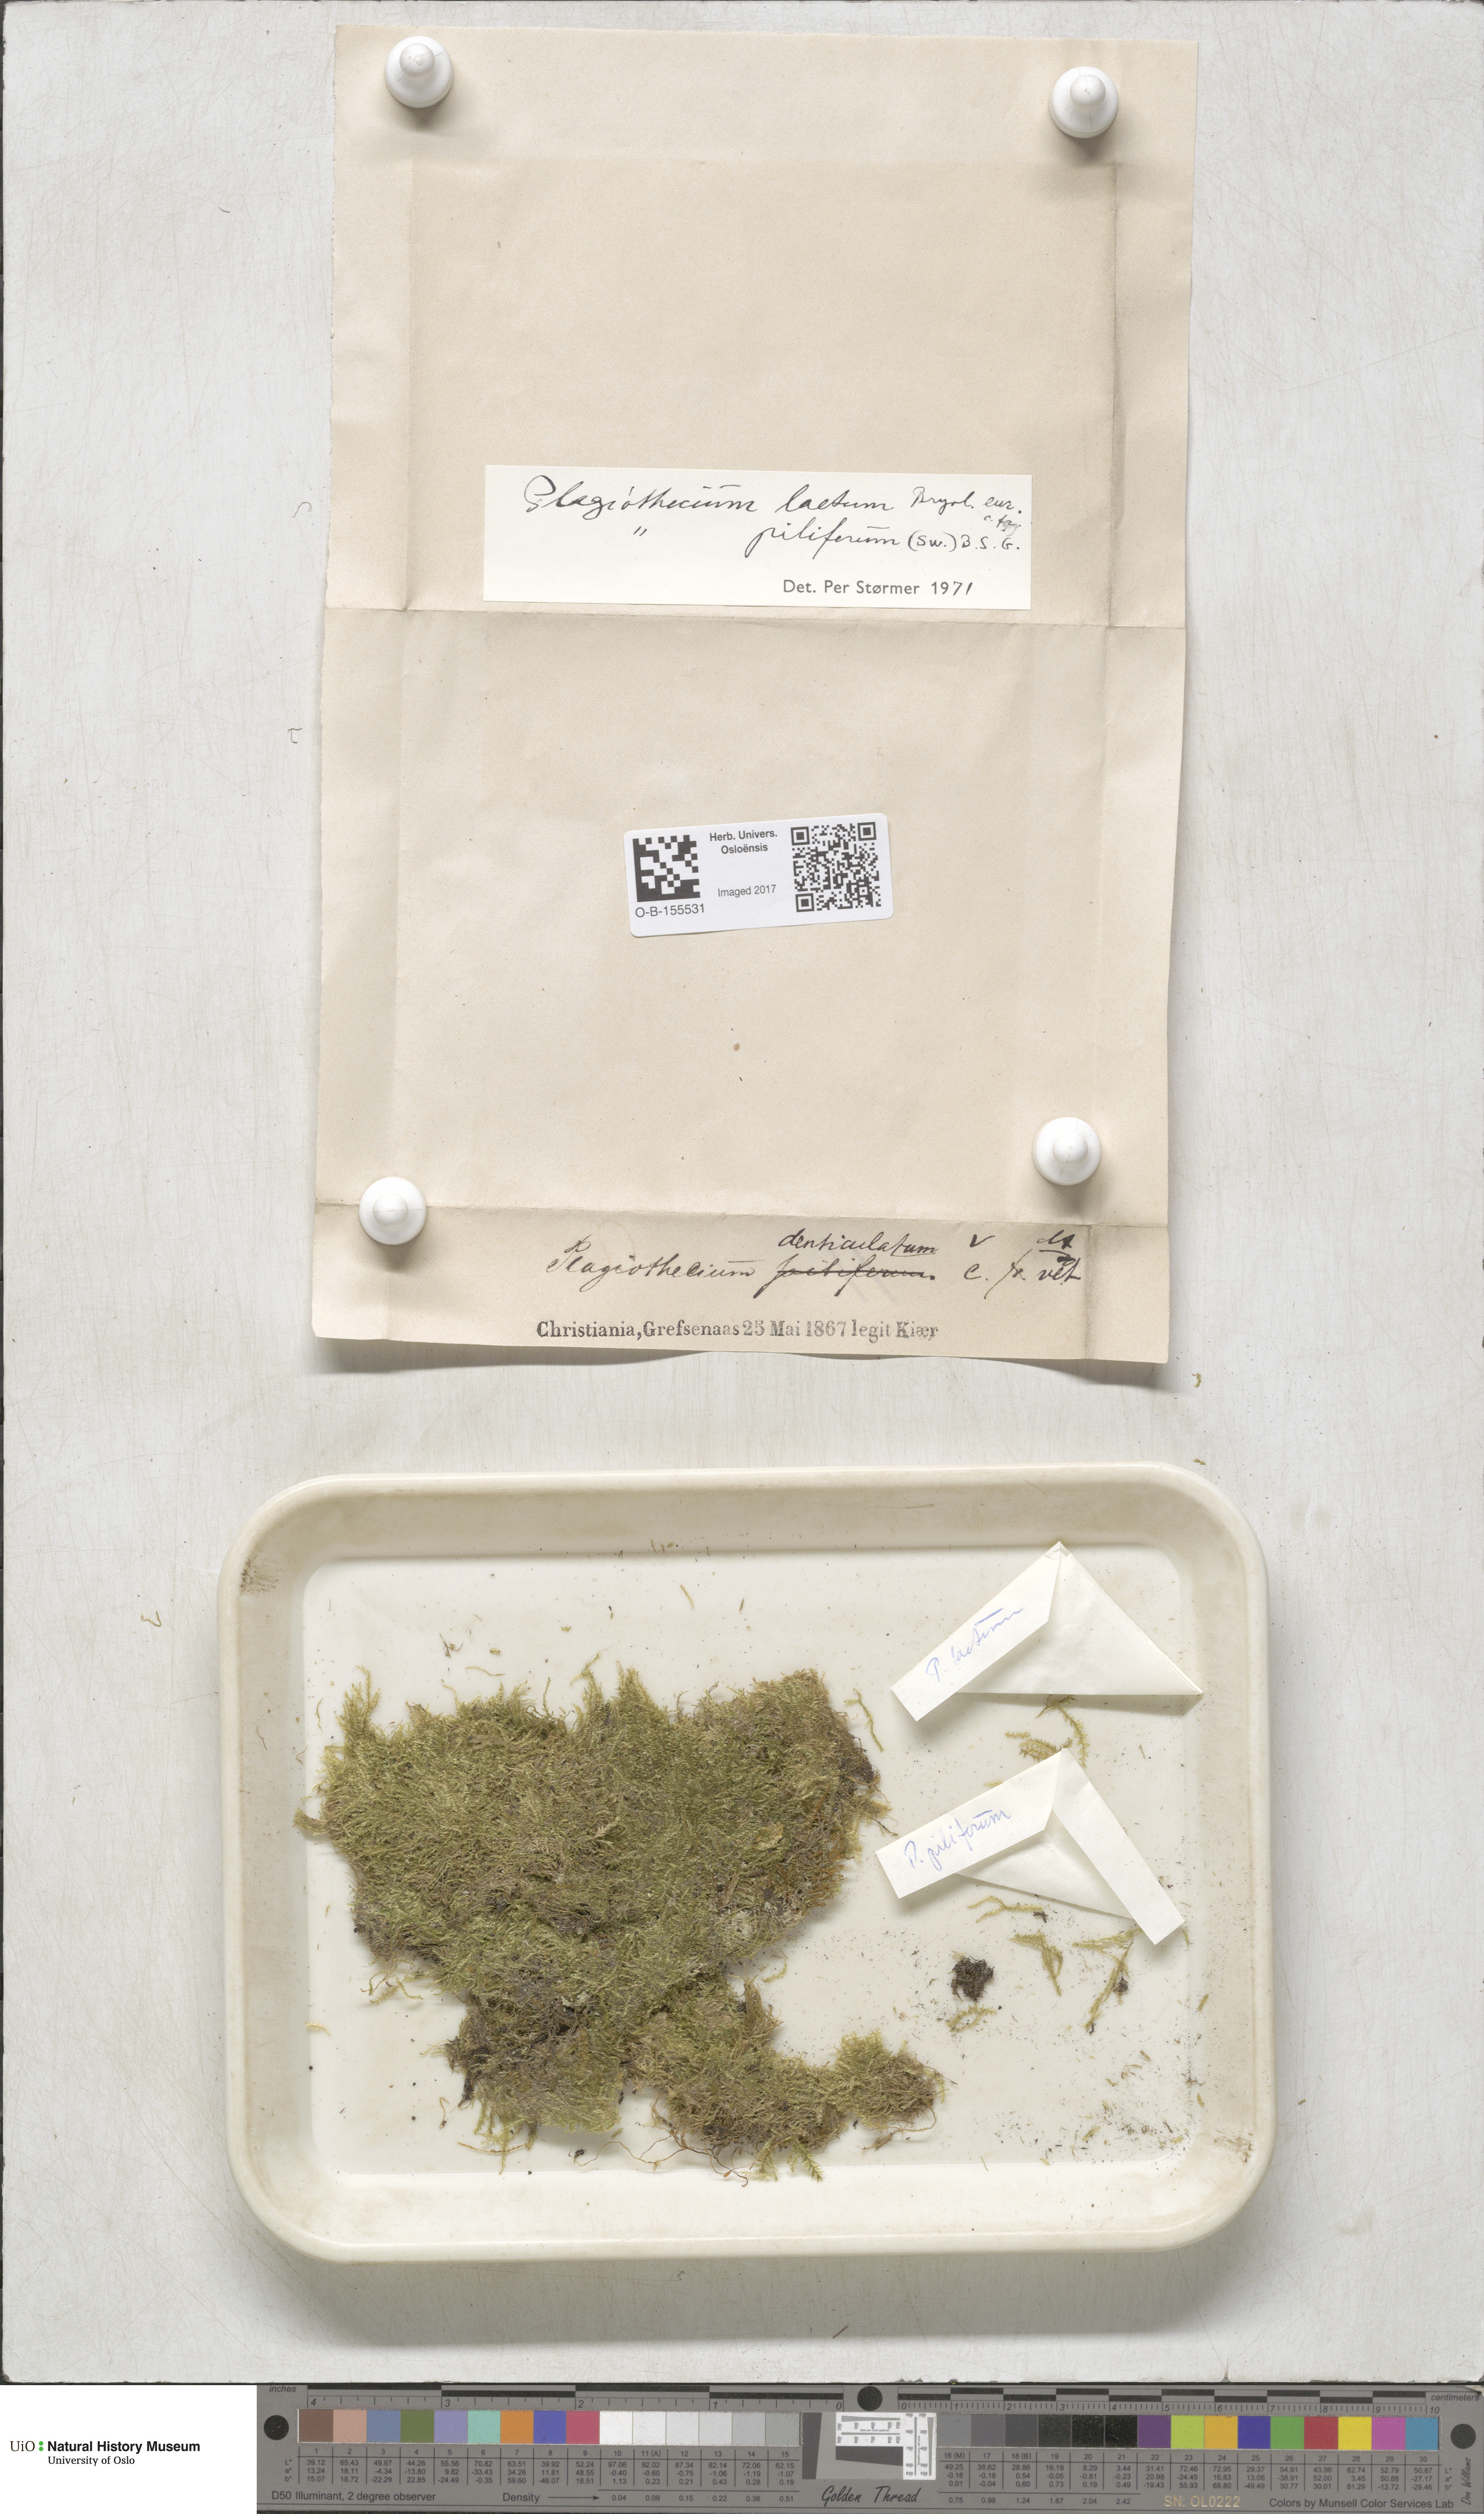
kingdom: Plantae
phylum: Bryophyta
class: Bryopsida
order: Hypnales
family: Plagiotheciaceae
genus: Plagiothecium
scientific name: Plagiothecium laetum
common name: Bright silk moss
